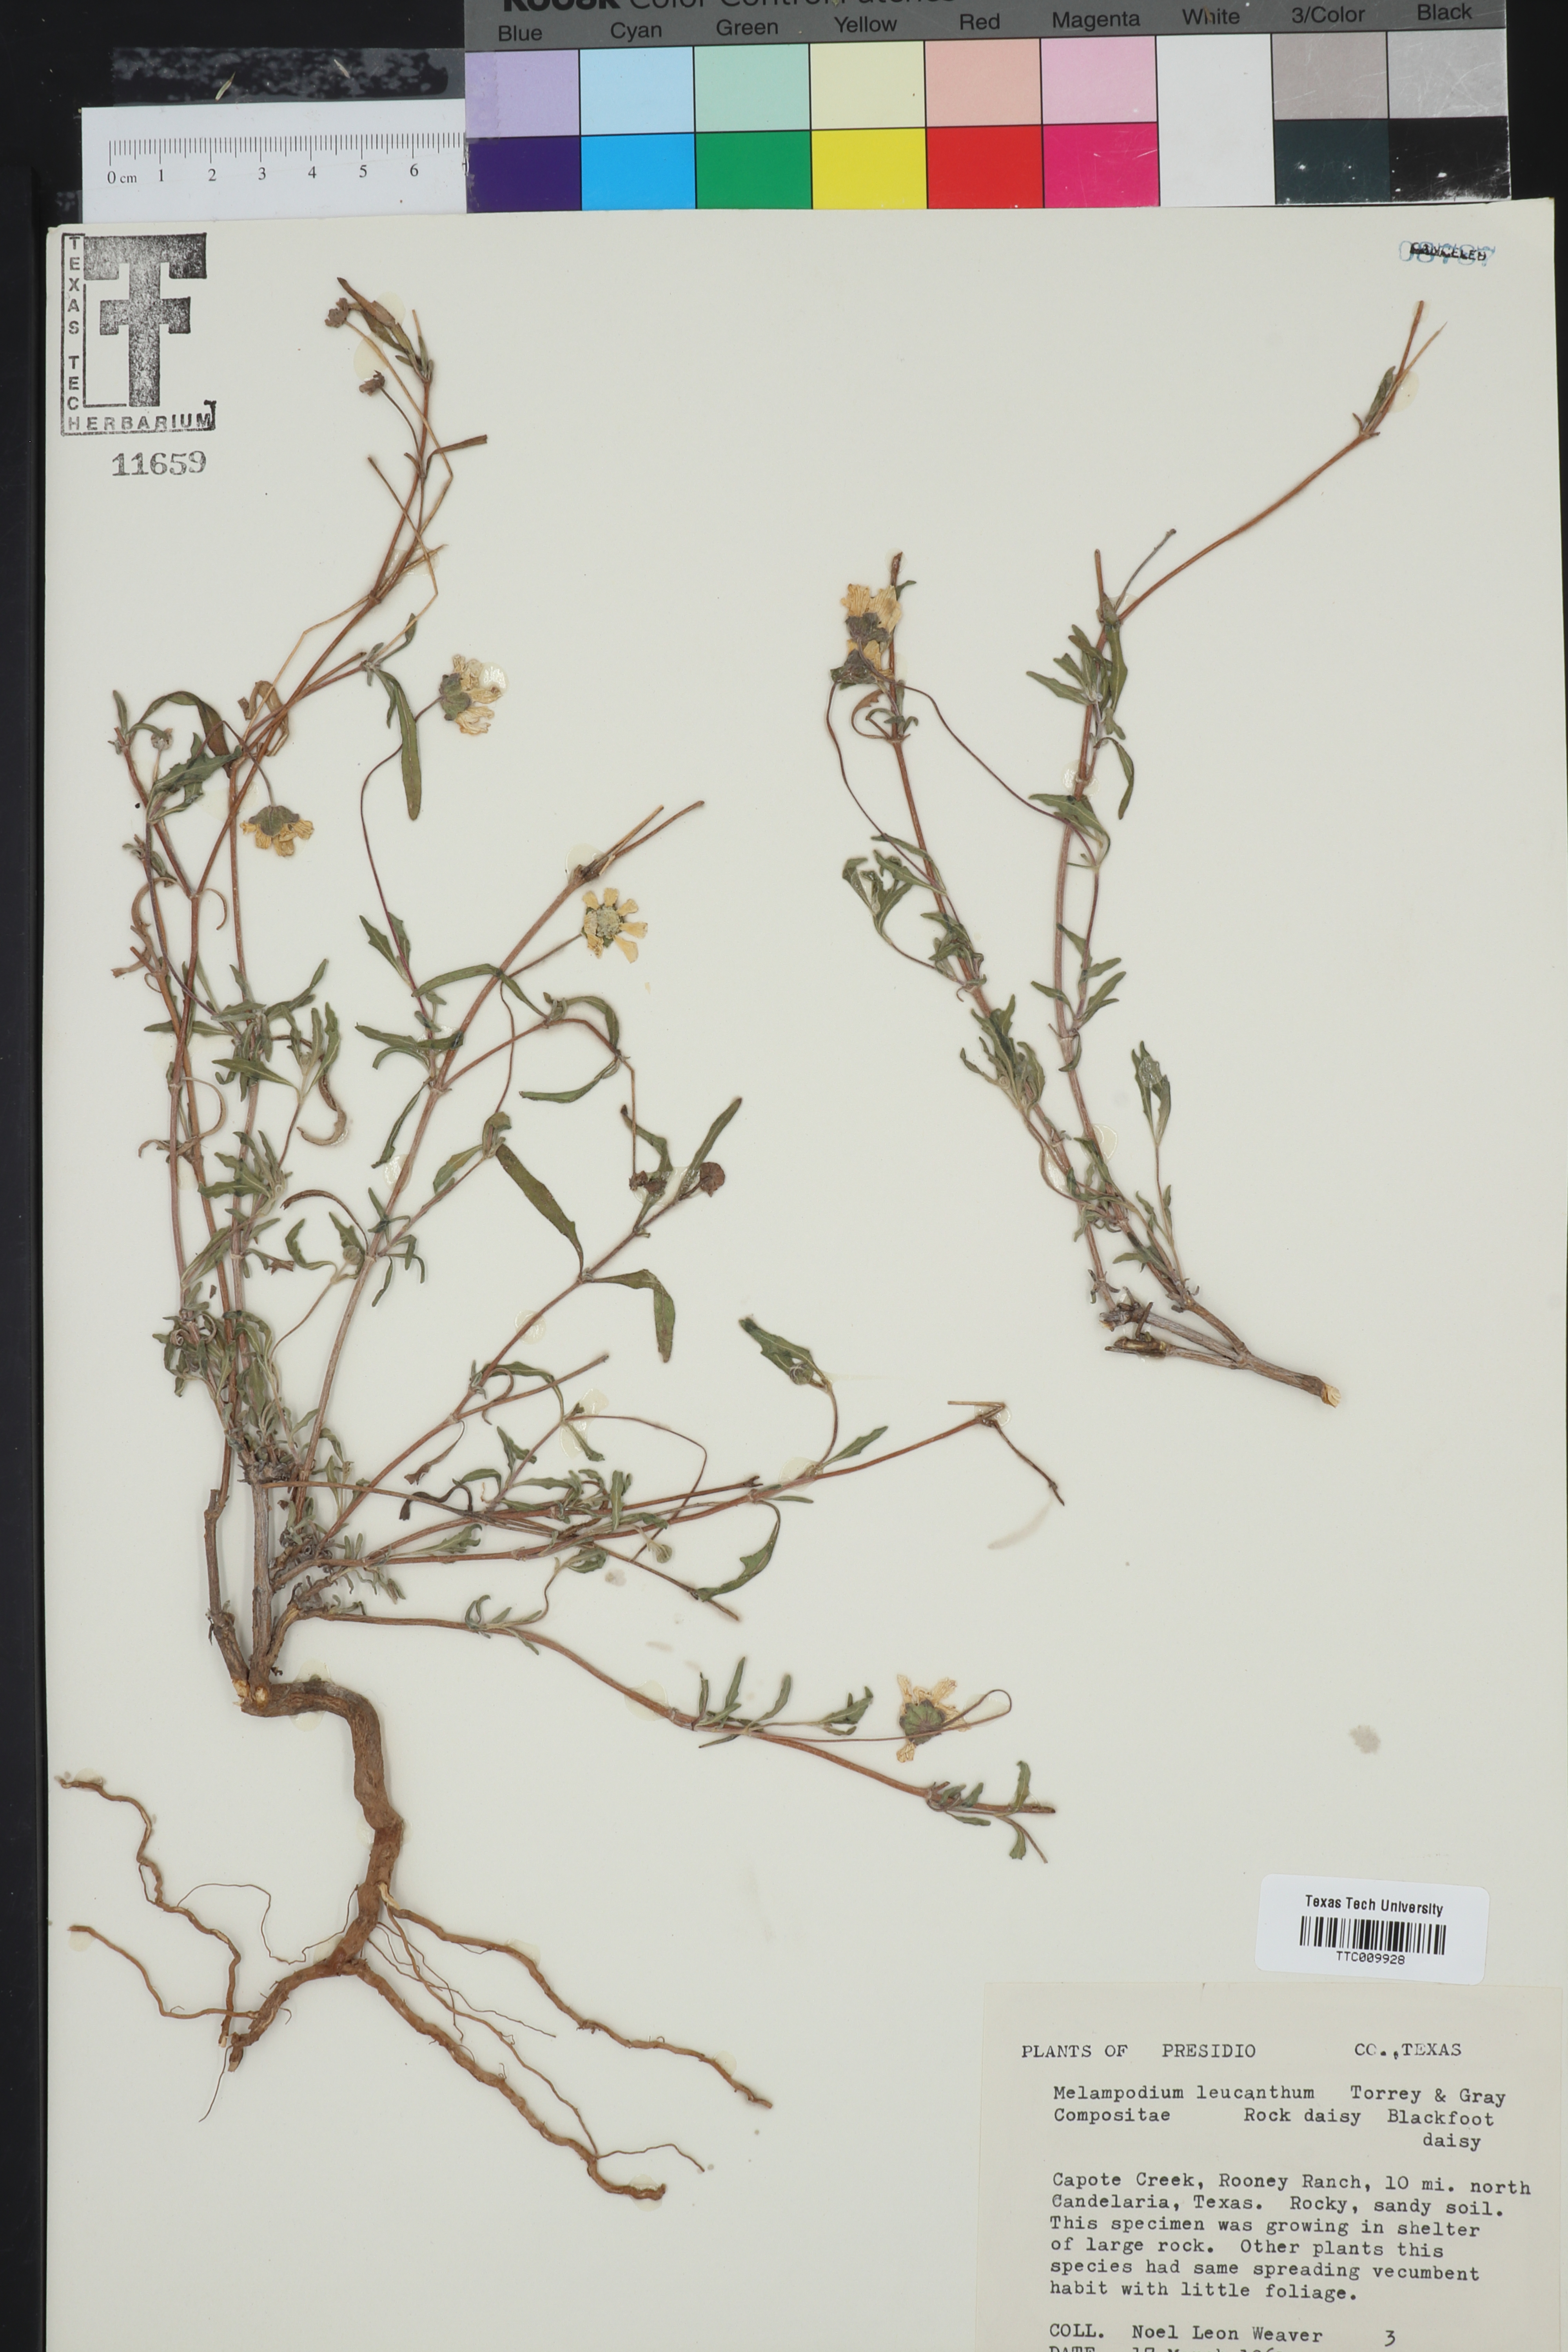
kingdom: Plantae
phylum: Tracheophyta
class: Magnoliopsida
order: Asterales
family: Asteraceae
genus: Melampodium
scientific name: Melampodium leucanthum
